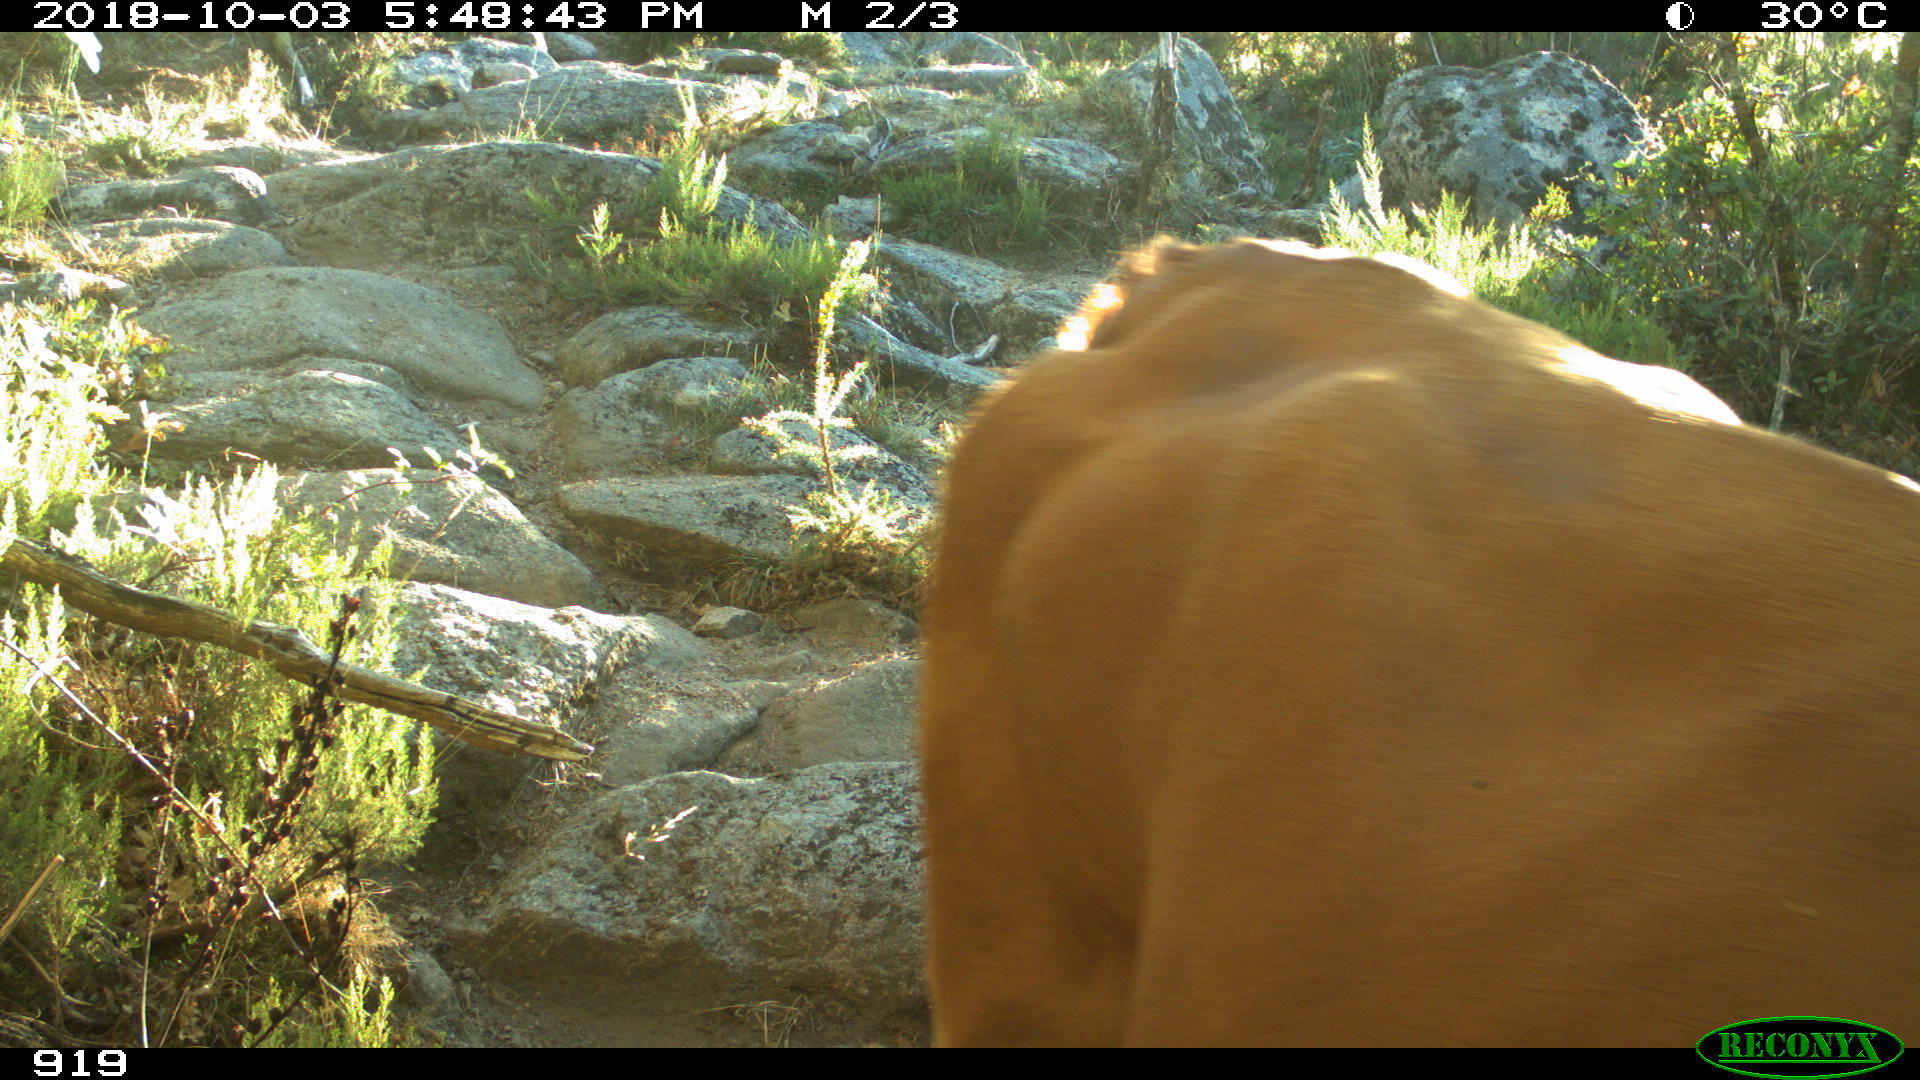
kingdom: Animalia
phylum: Chordata
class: Mammalia
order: Artiodactyla
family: Bovidae
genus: Bos
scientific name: Bos taurus
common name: Domesticated cattle
